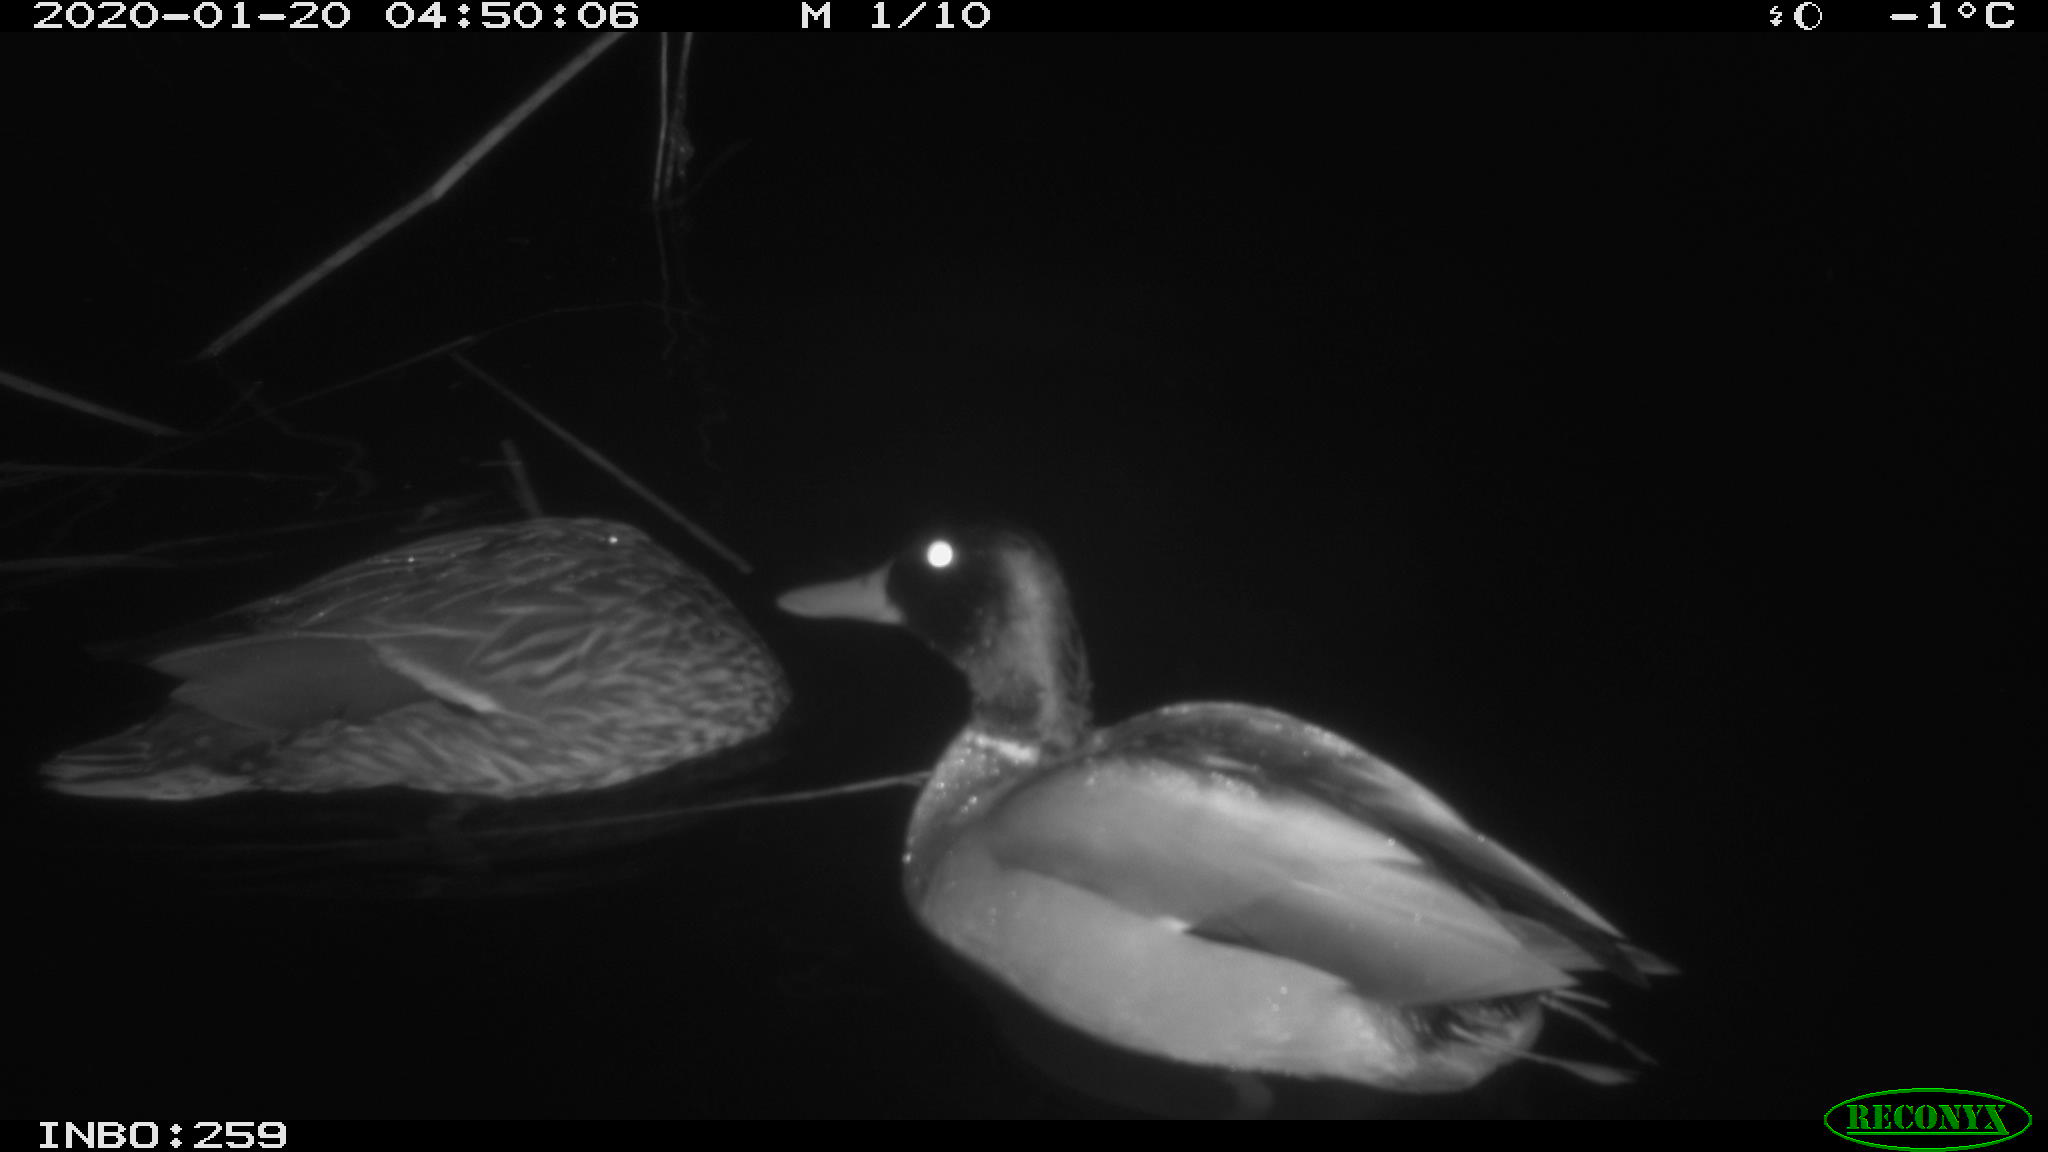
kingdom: Animalia
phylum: Chordata
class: Aves
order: Anseriformes
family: Anatidae
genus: Anas
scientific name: Anas platyrhynchos
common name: Mallard
